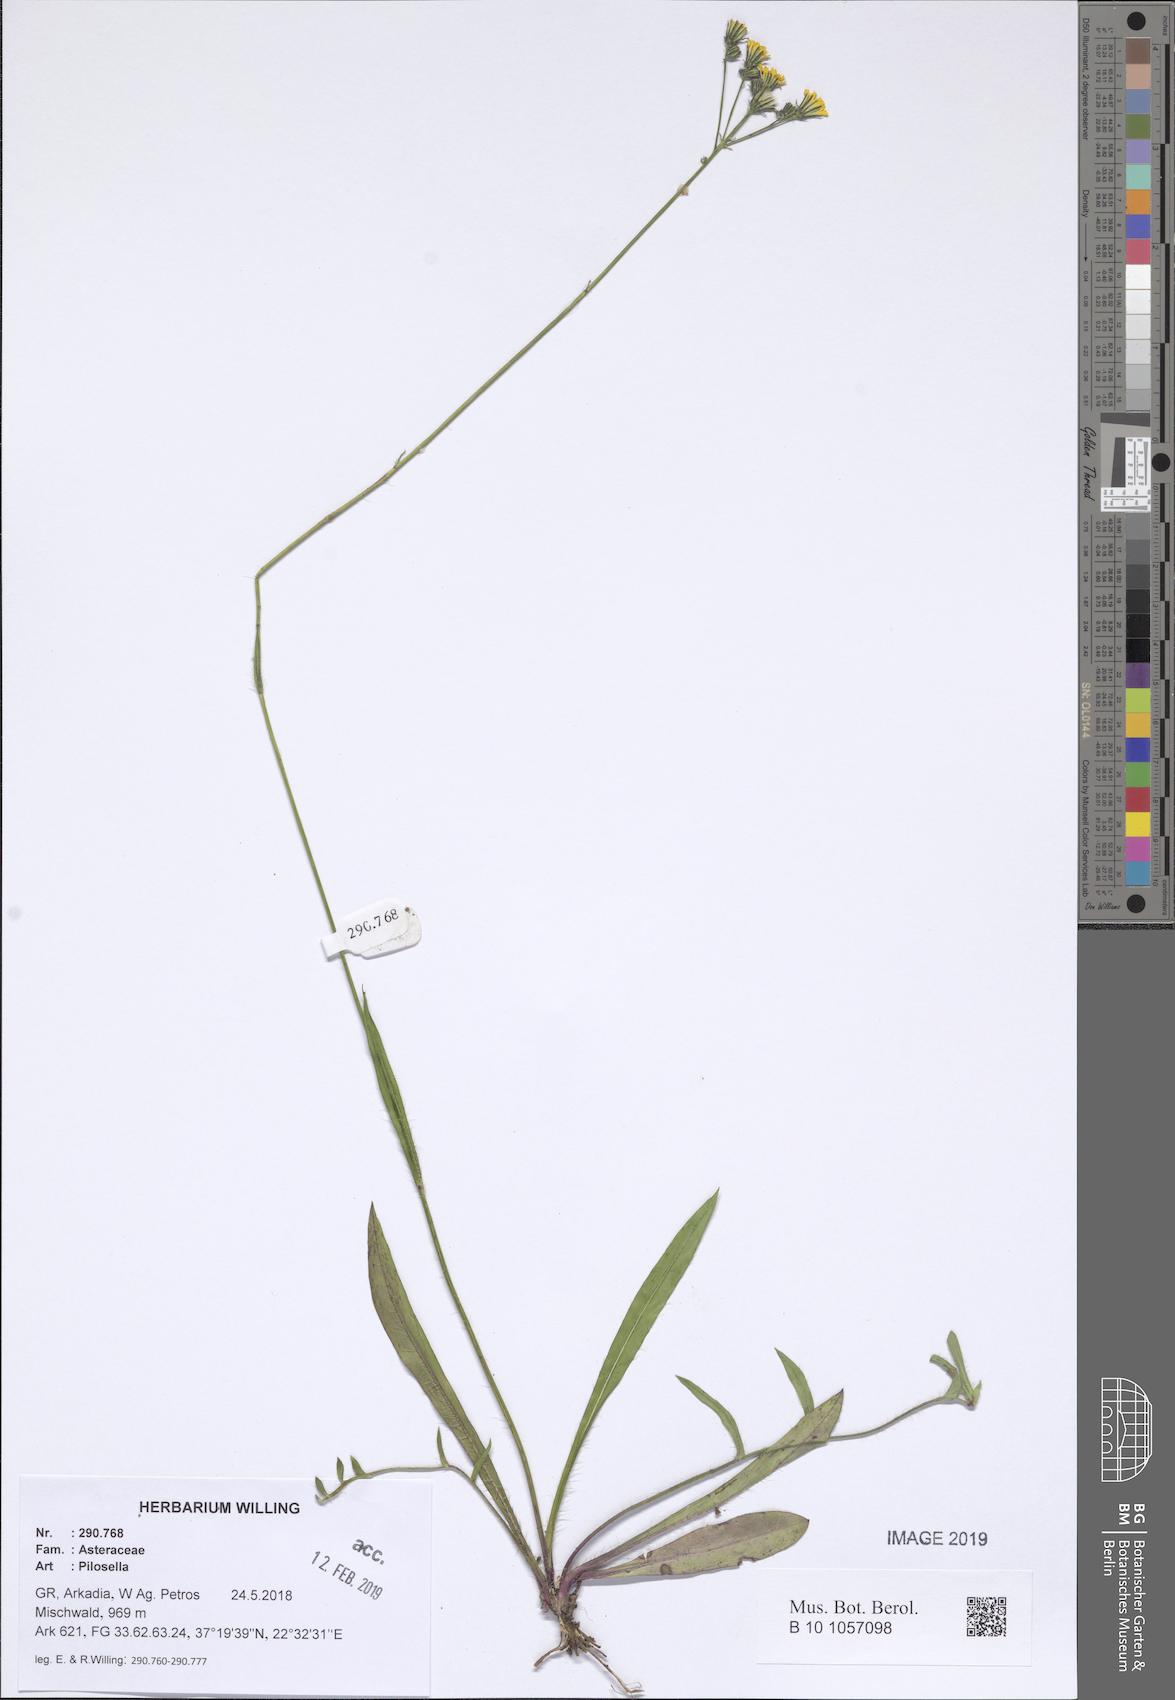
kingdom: Plantae
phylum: Tracheophyta
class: Magnoliopsida
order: Asterales
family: Asteraceae
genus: Pilosella
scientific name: Pilosella
